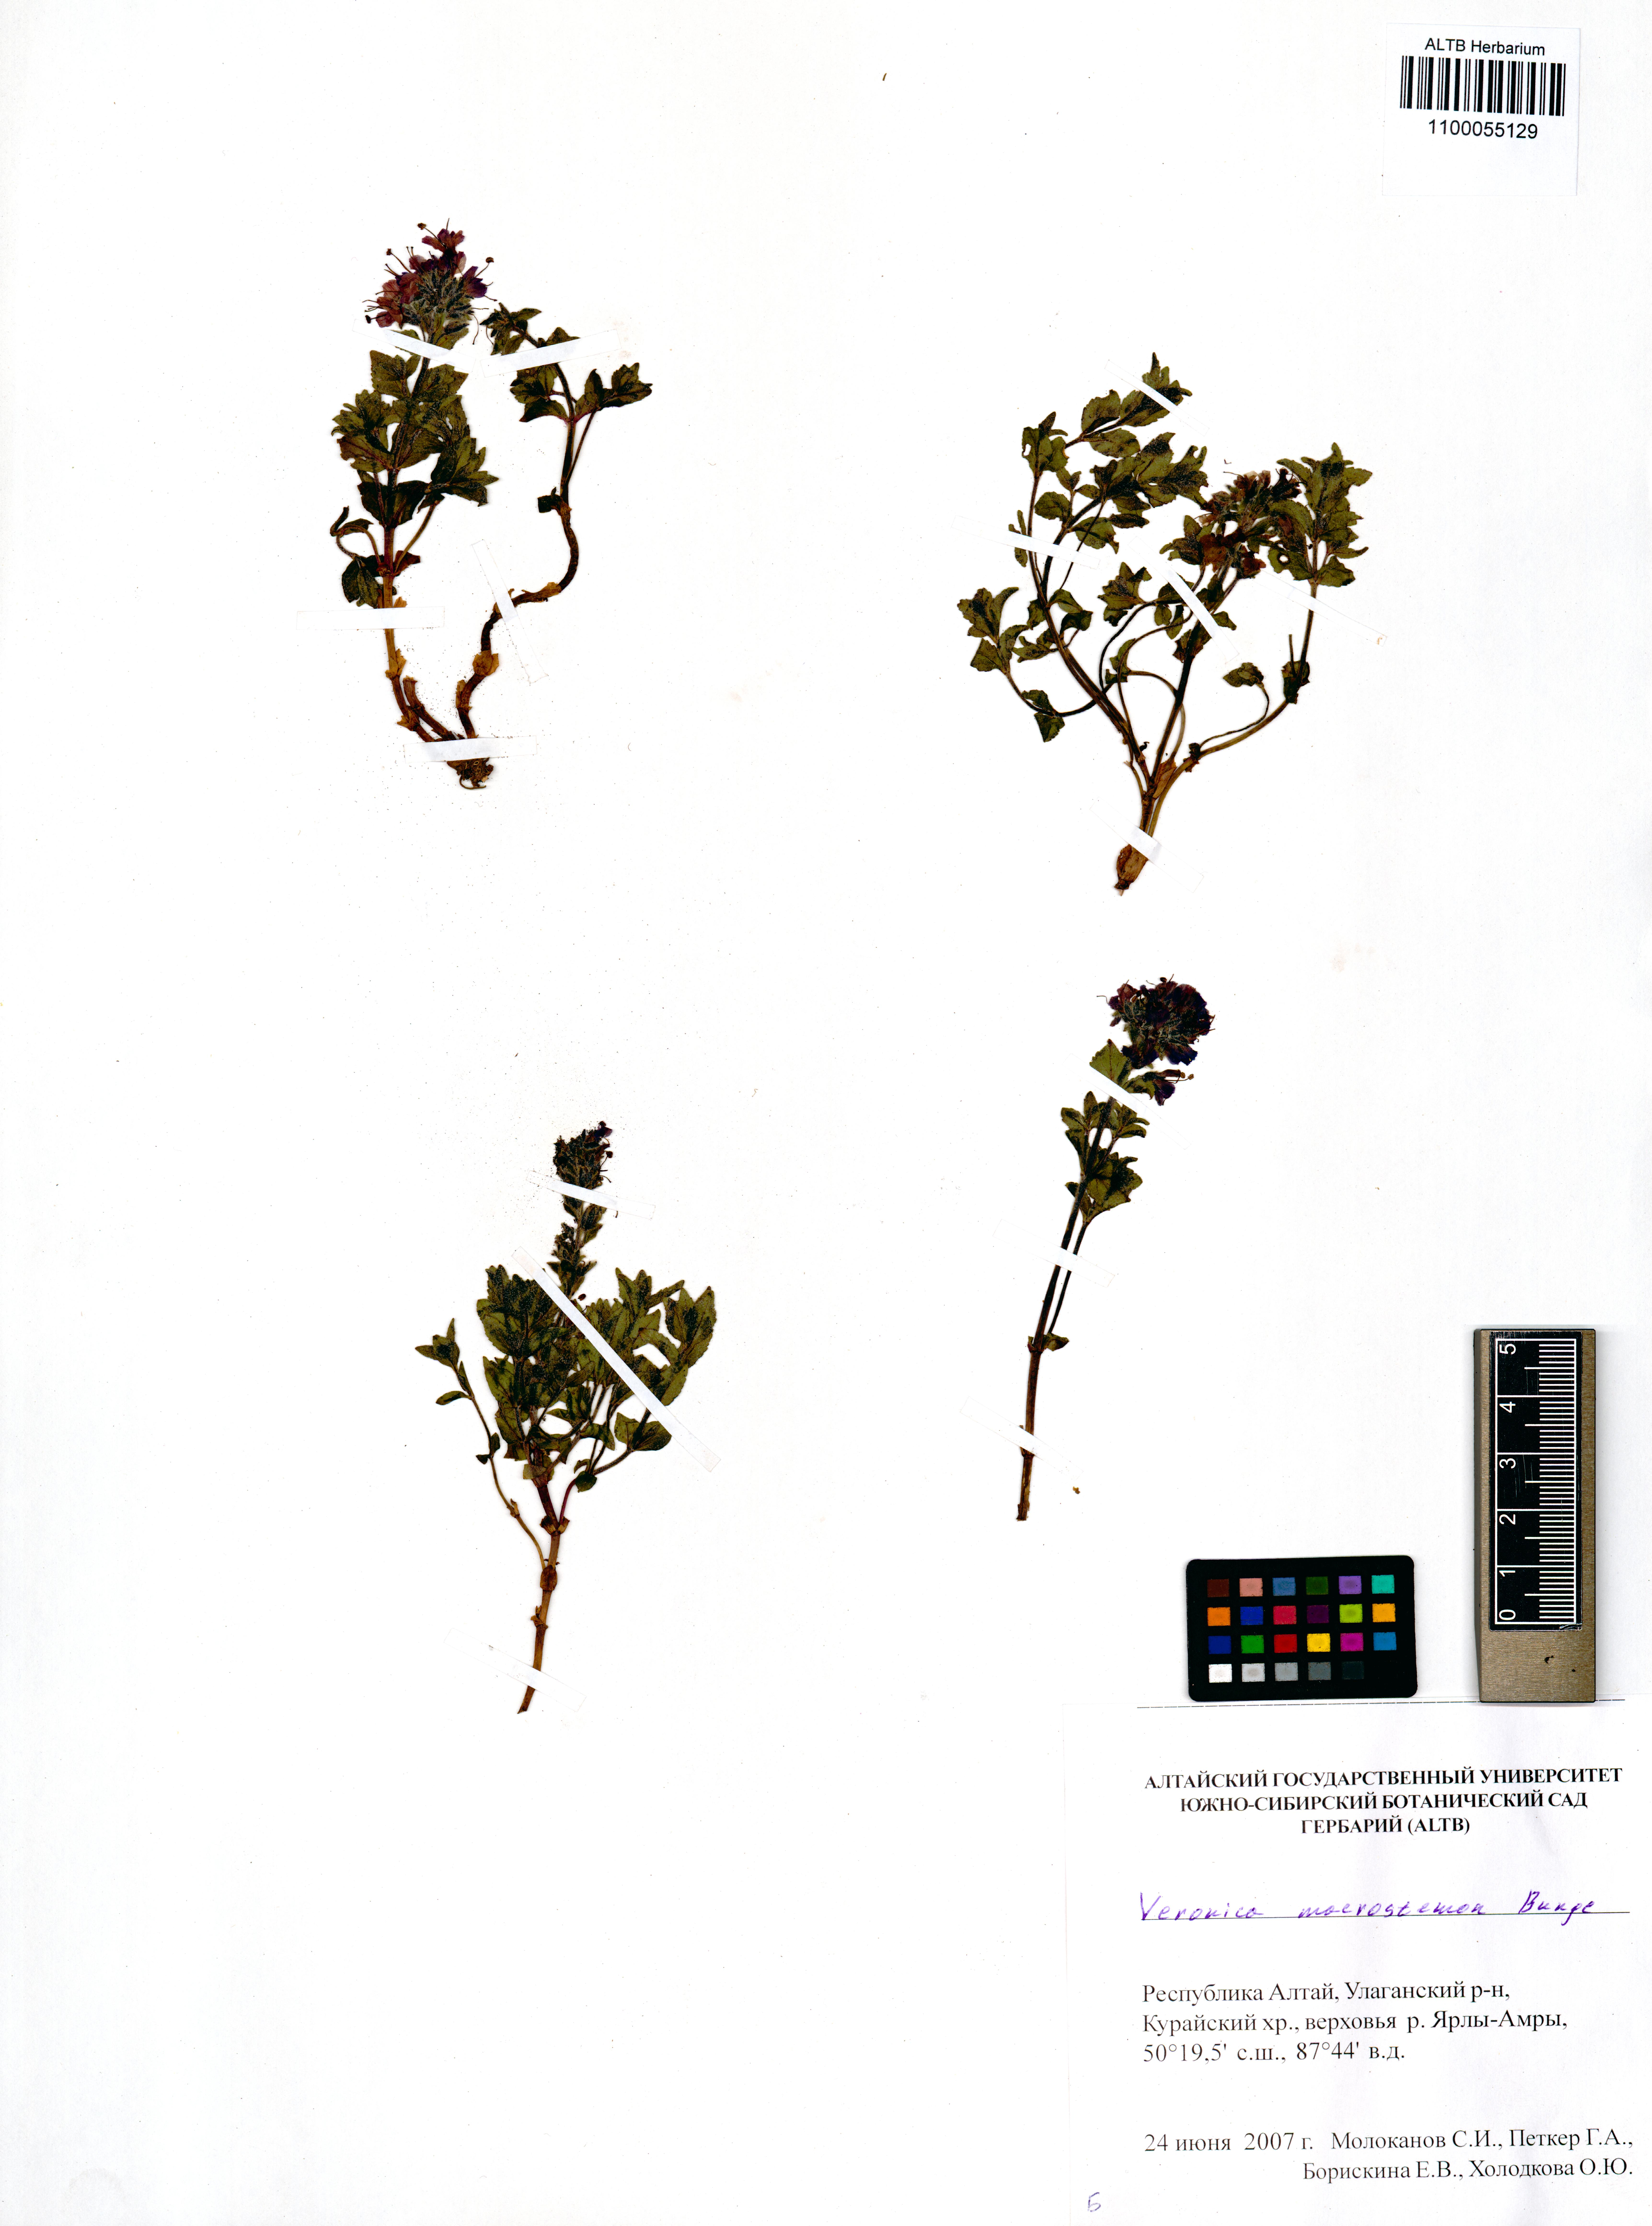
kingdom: Plantae
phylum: Tracheophyta
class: Magnoliopsida
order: Lamiales
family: Plantaginaceae
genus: Veronica
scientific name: Veronica macrostemon
